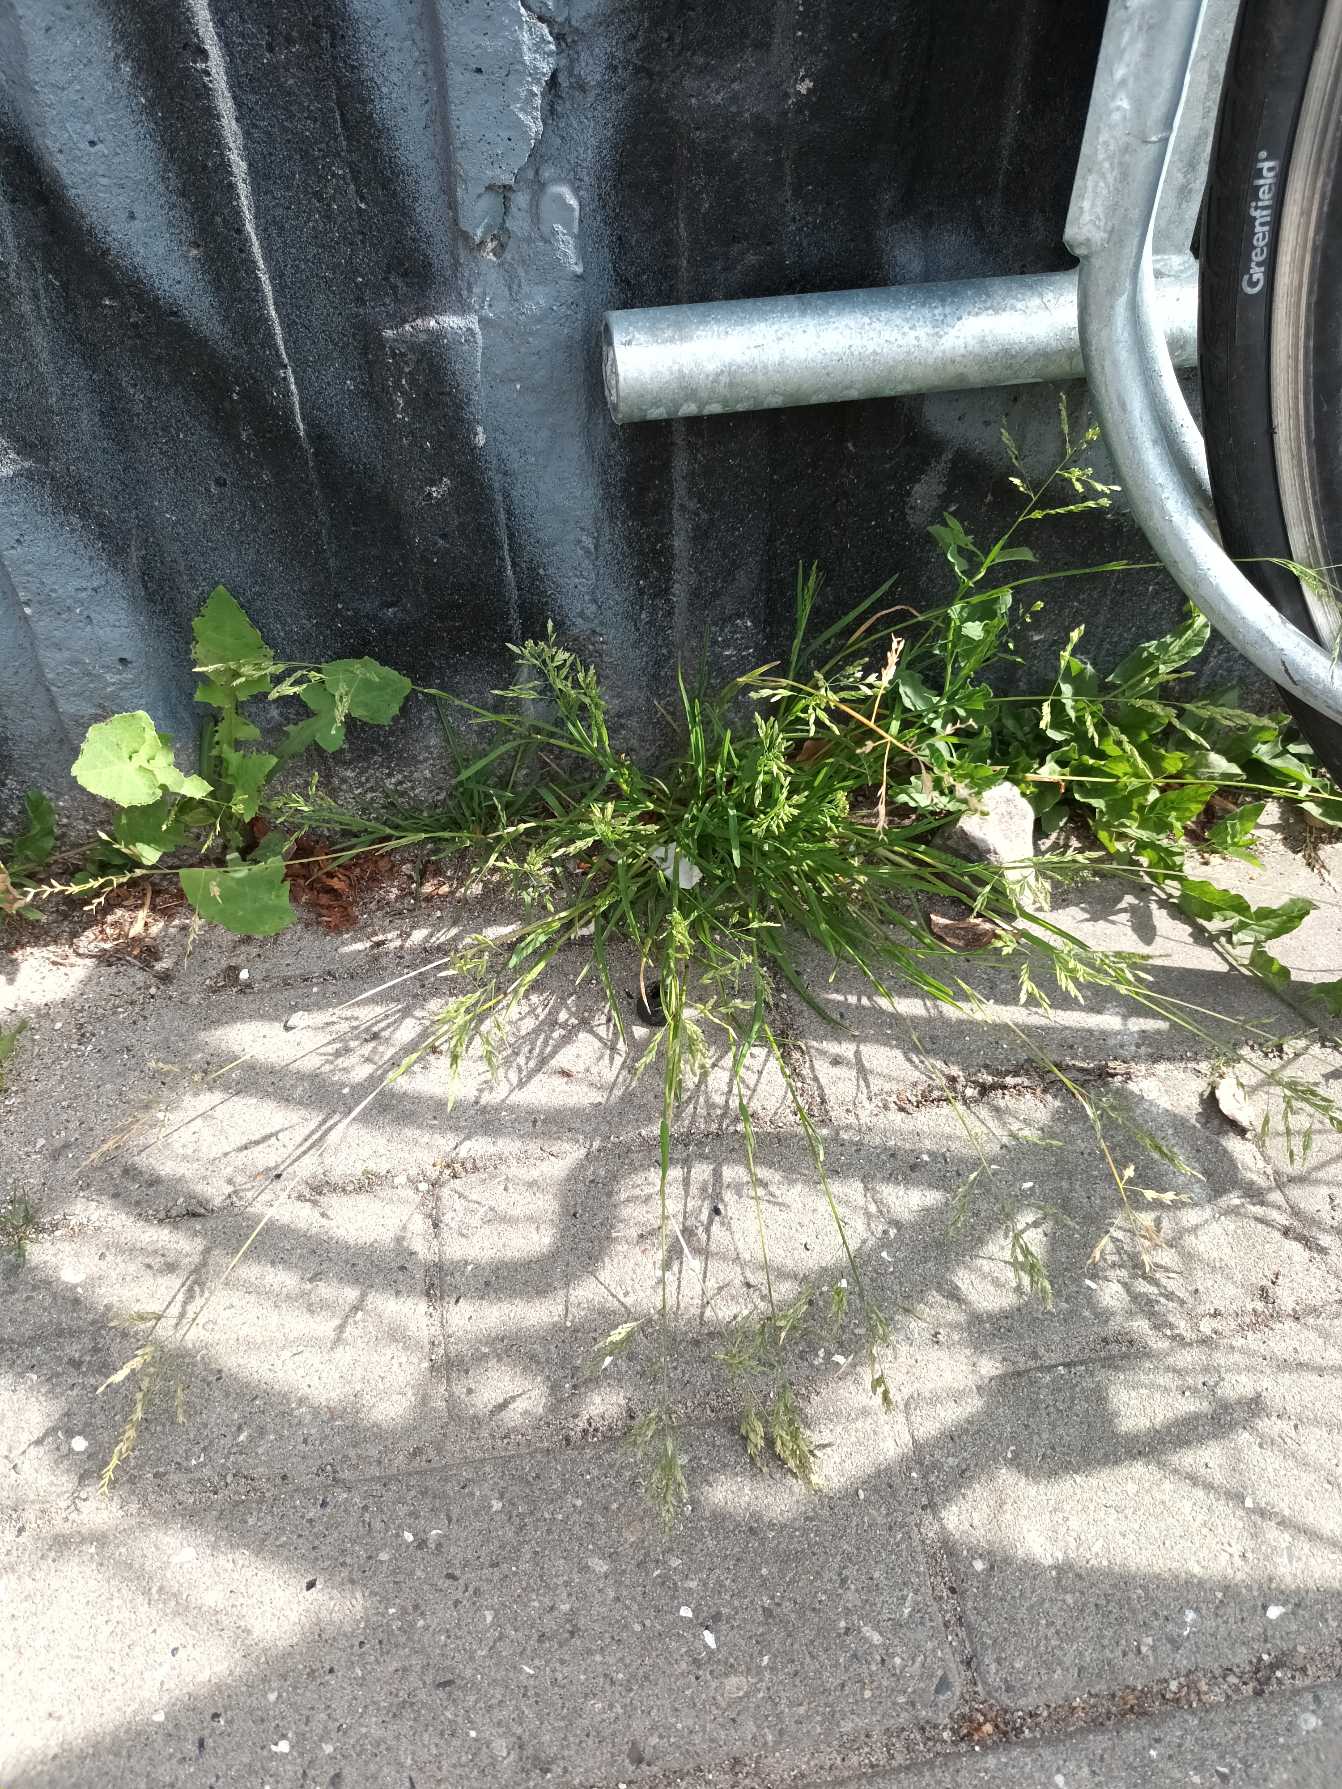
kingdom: Plantae
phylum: Tracheophyta
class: Liliopsida
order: Poales
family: Poaceae
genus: Poa
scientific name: Poa annua
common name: Enårig rapgræs
